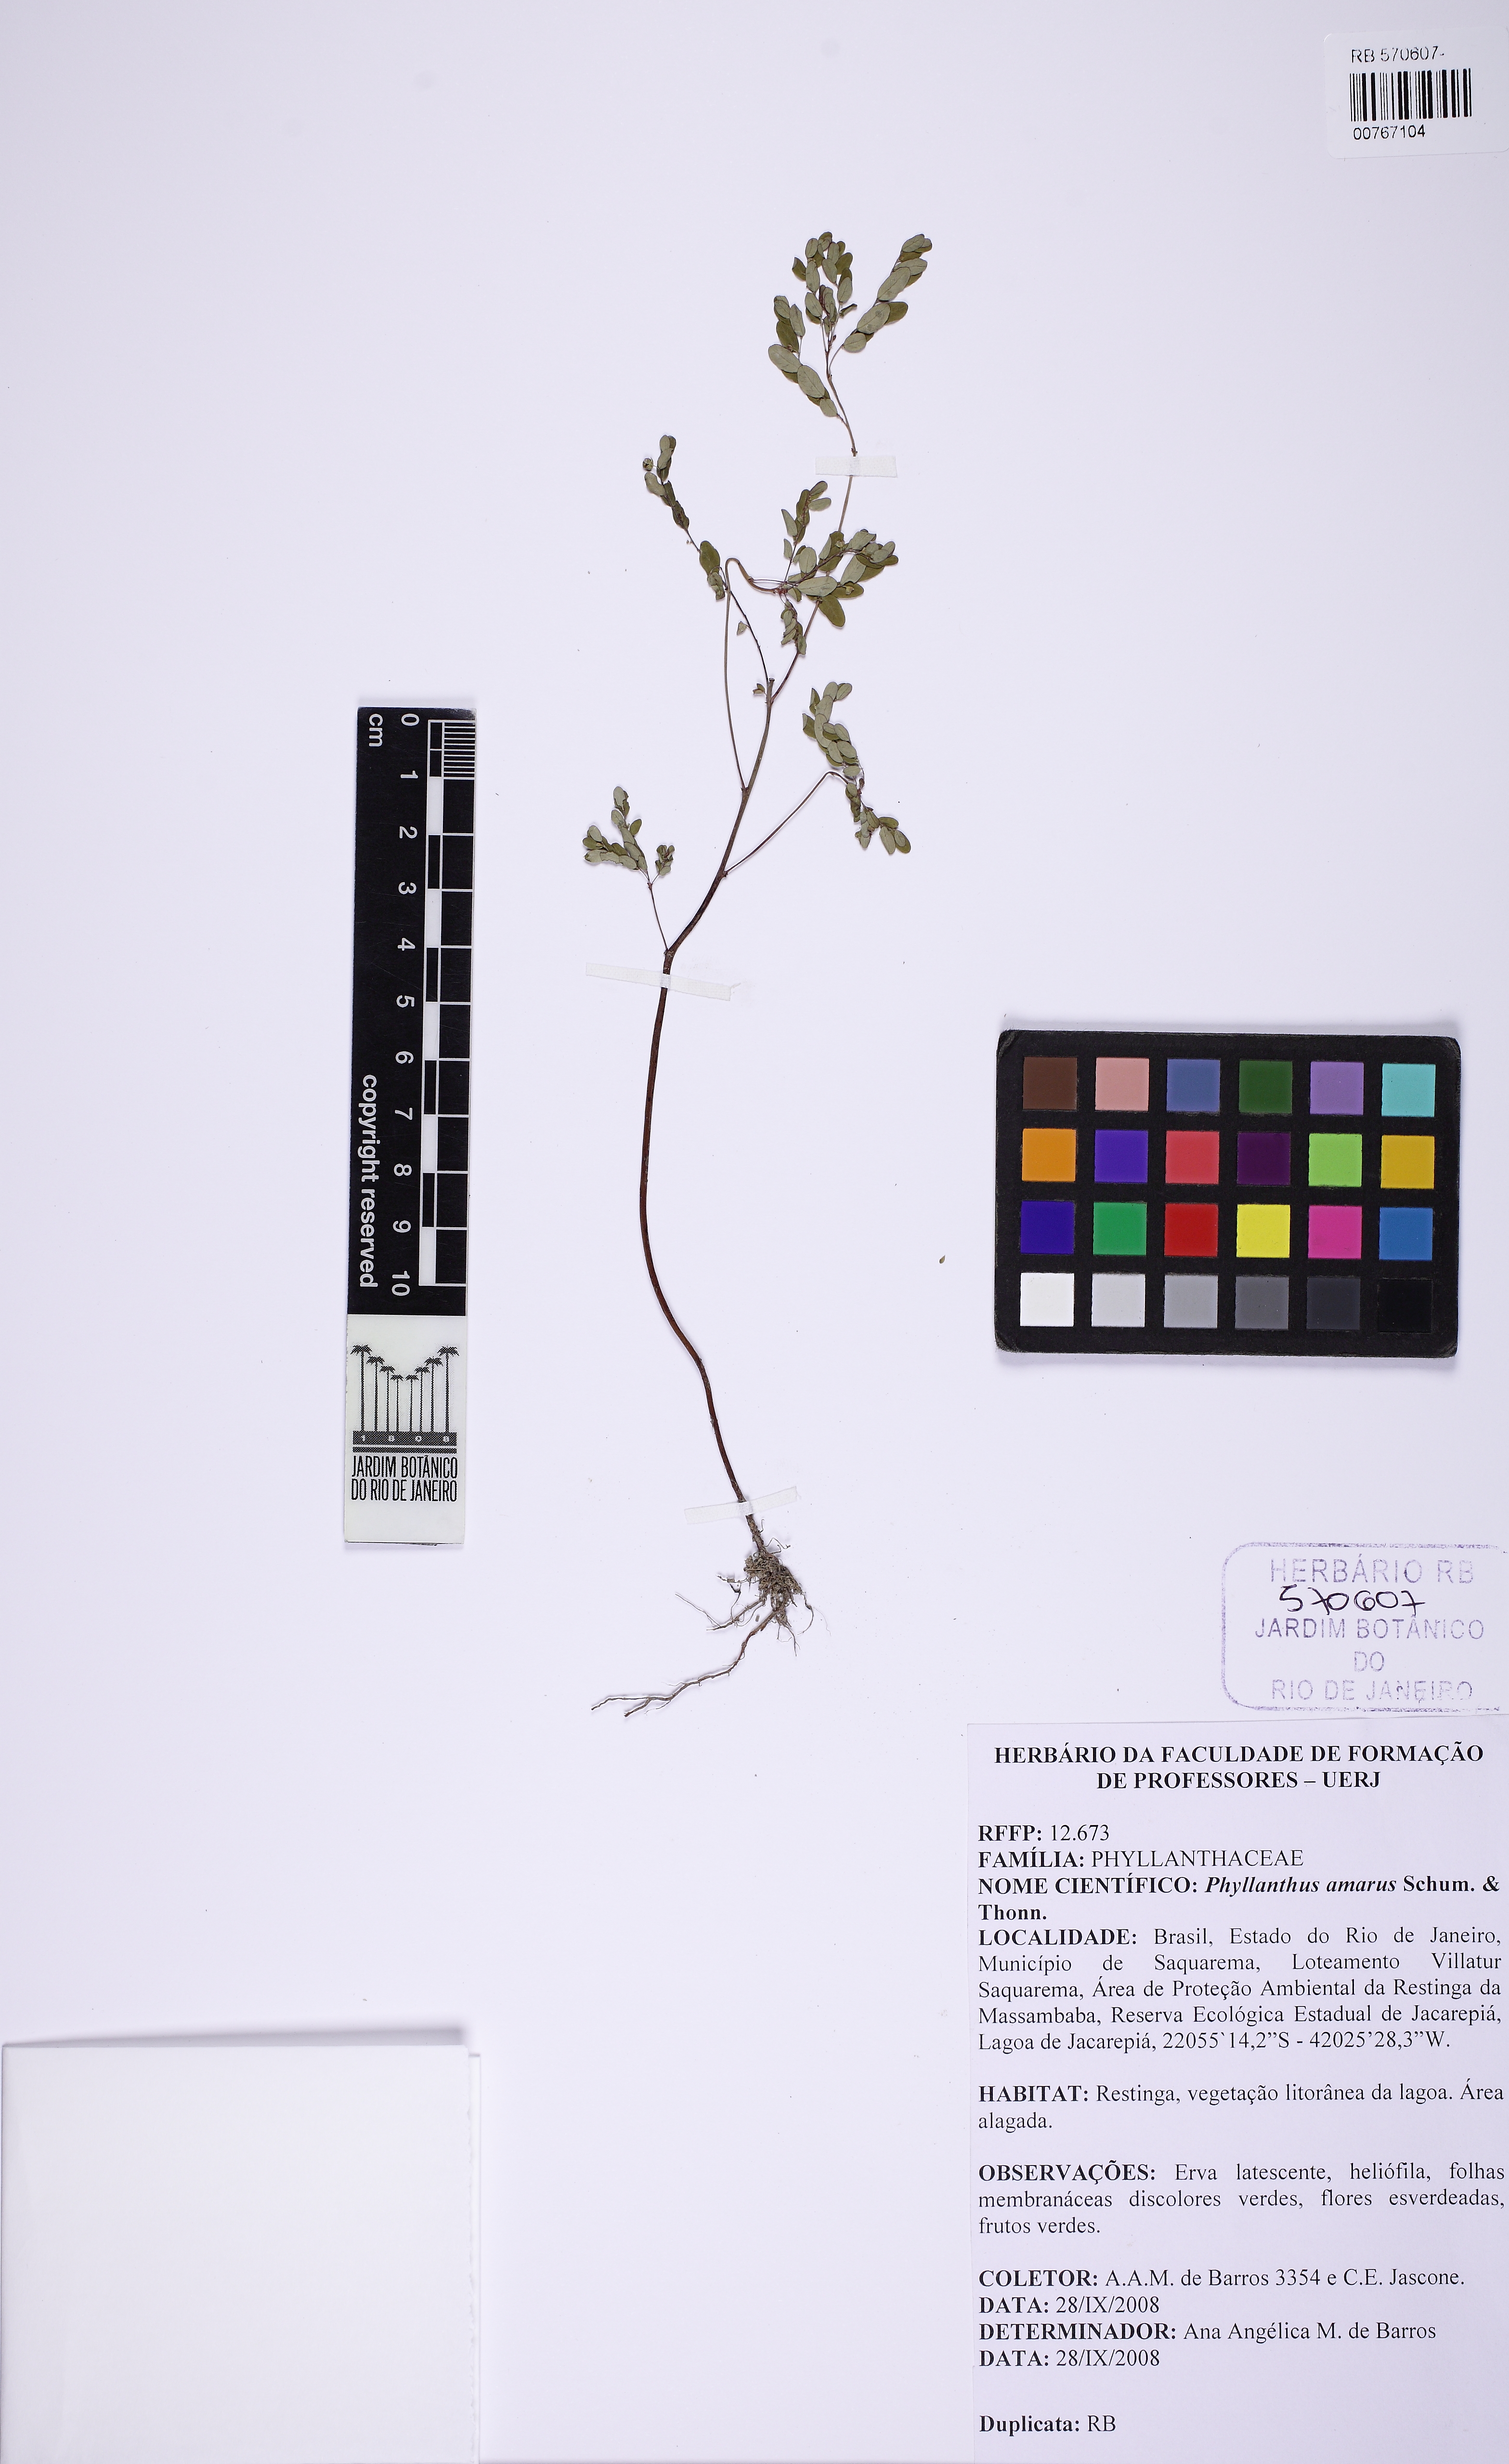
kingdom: Plantae
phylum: Tracheophyta
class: Magnoliopsida
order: Malpighiales
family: Phyllanthaceae
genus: Phyllanthus
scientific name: Phyllanthus amarus
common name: Carry me seed
